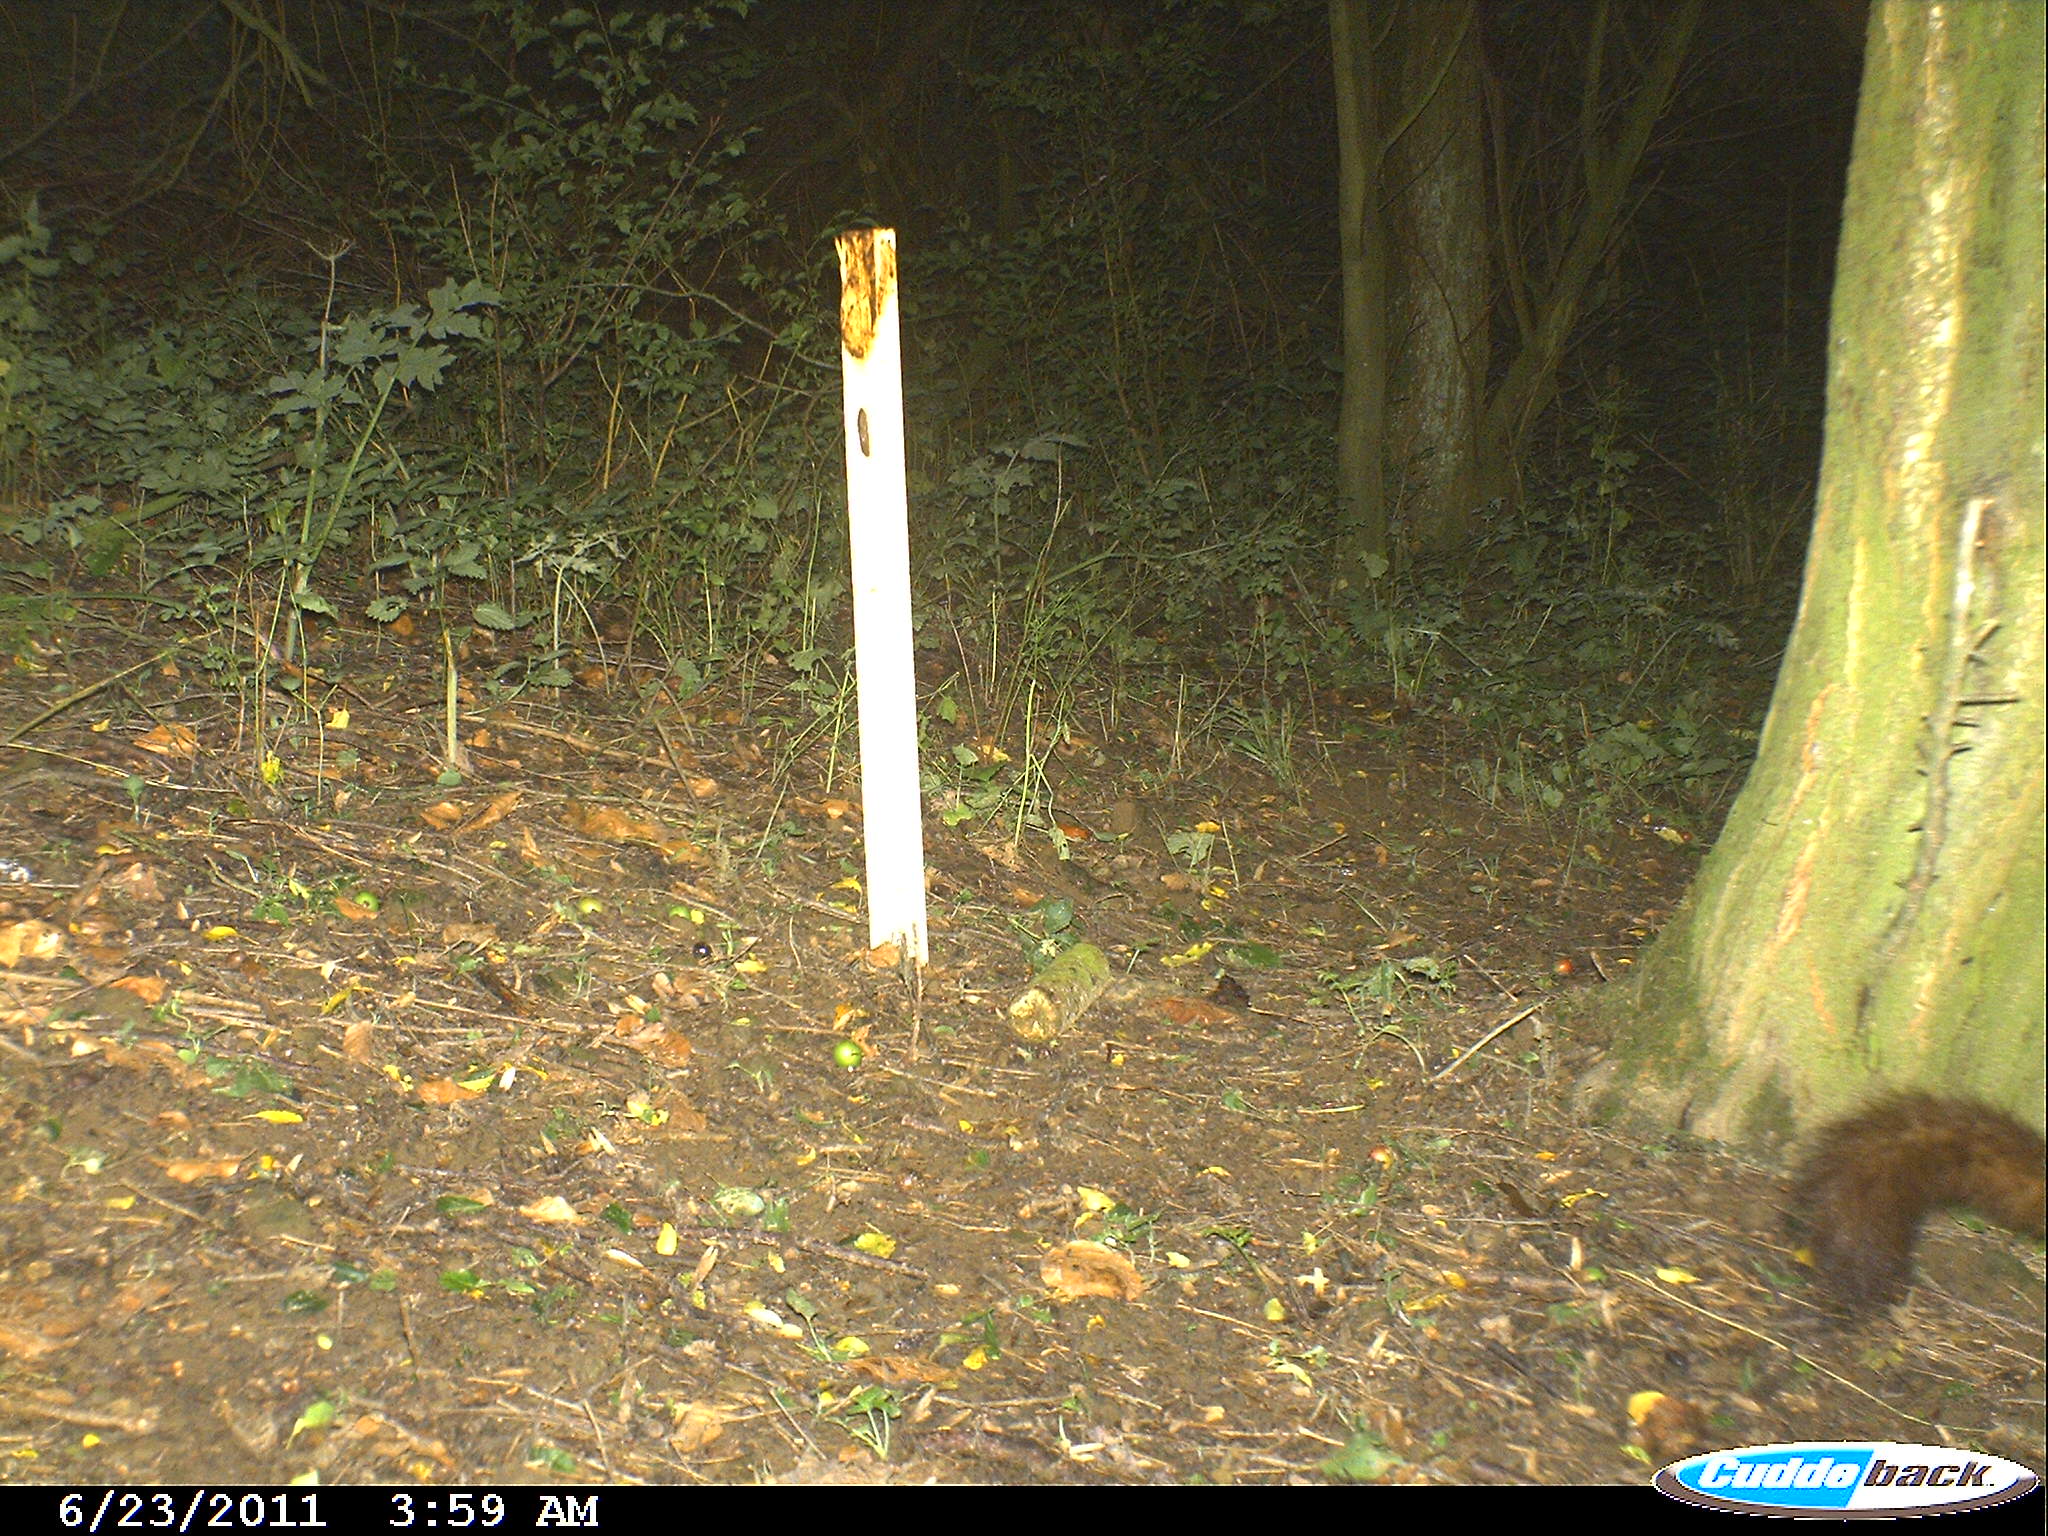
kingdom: Animalia
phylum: Chordata
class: Mammalia
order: Carnivora
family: Mustelidae
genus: Martes
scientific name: Martes
